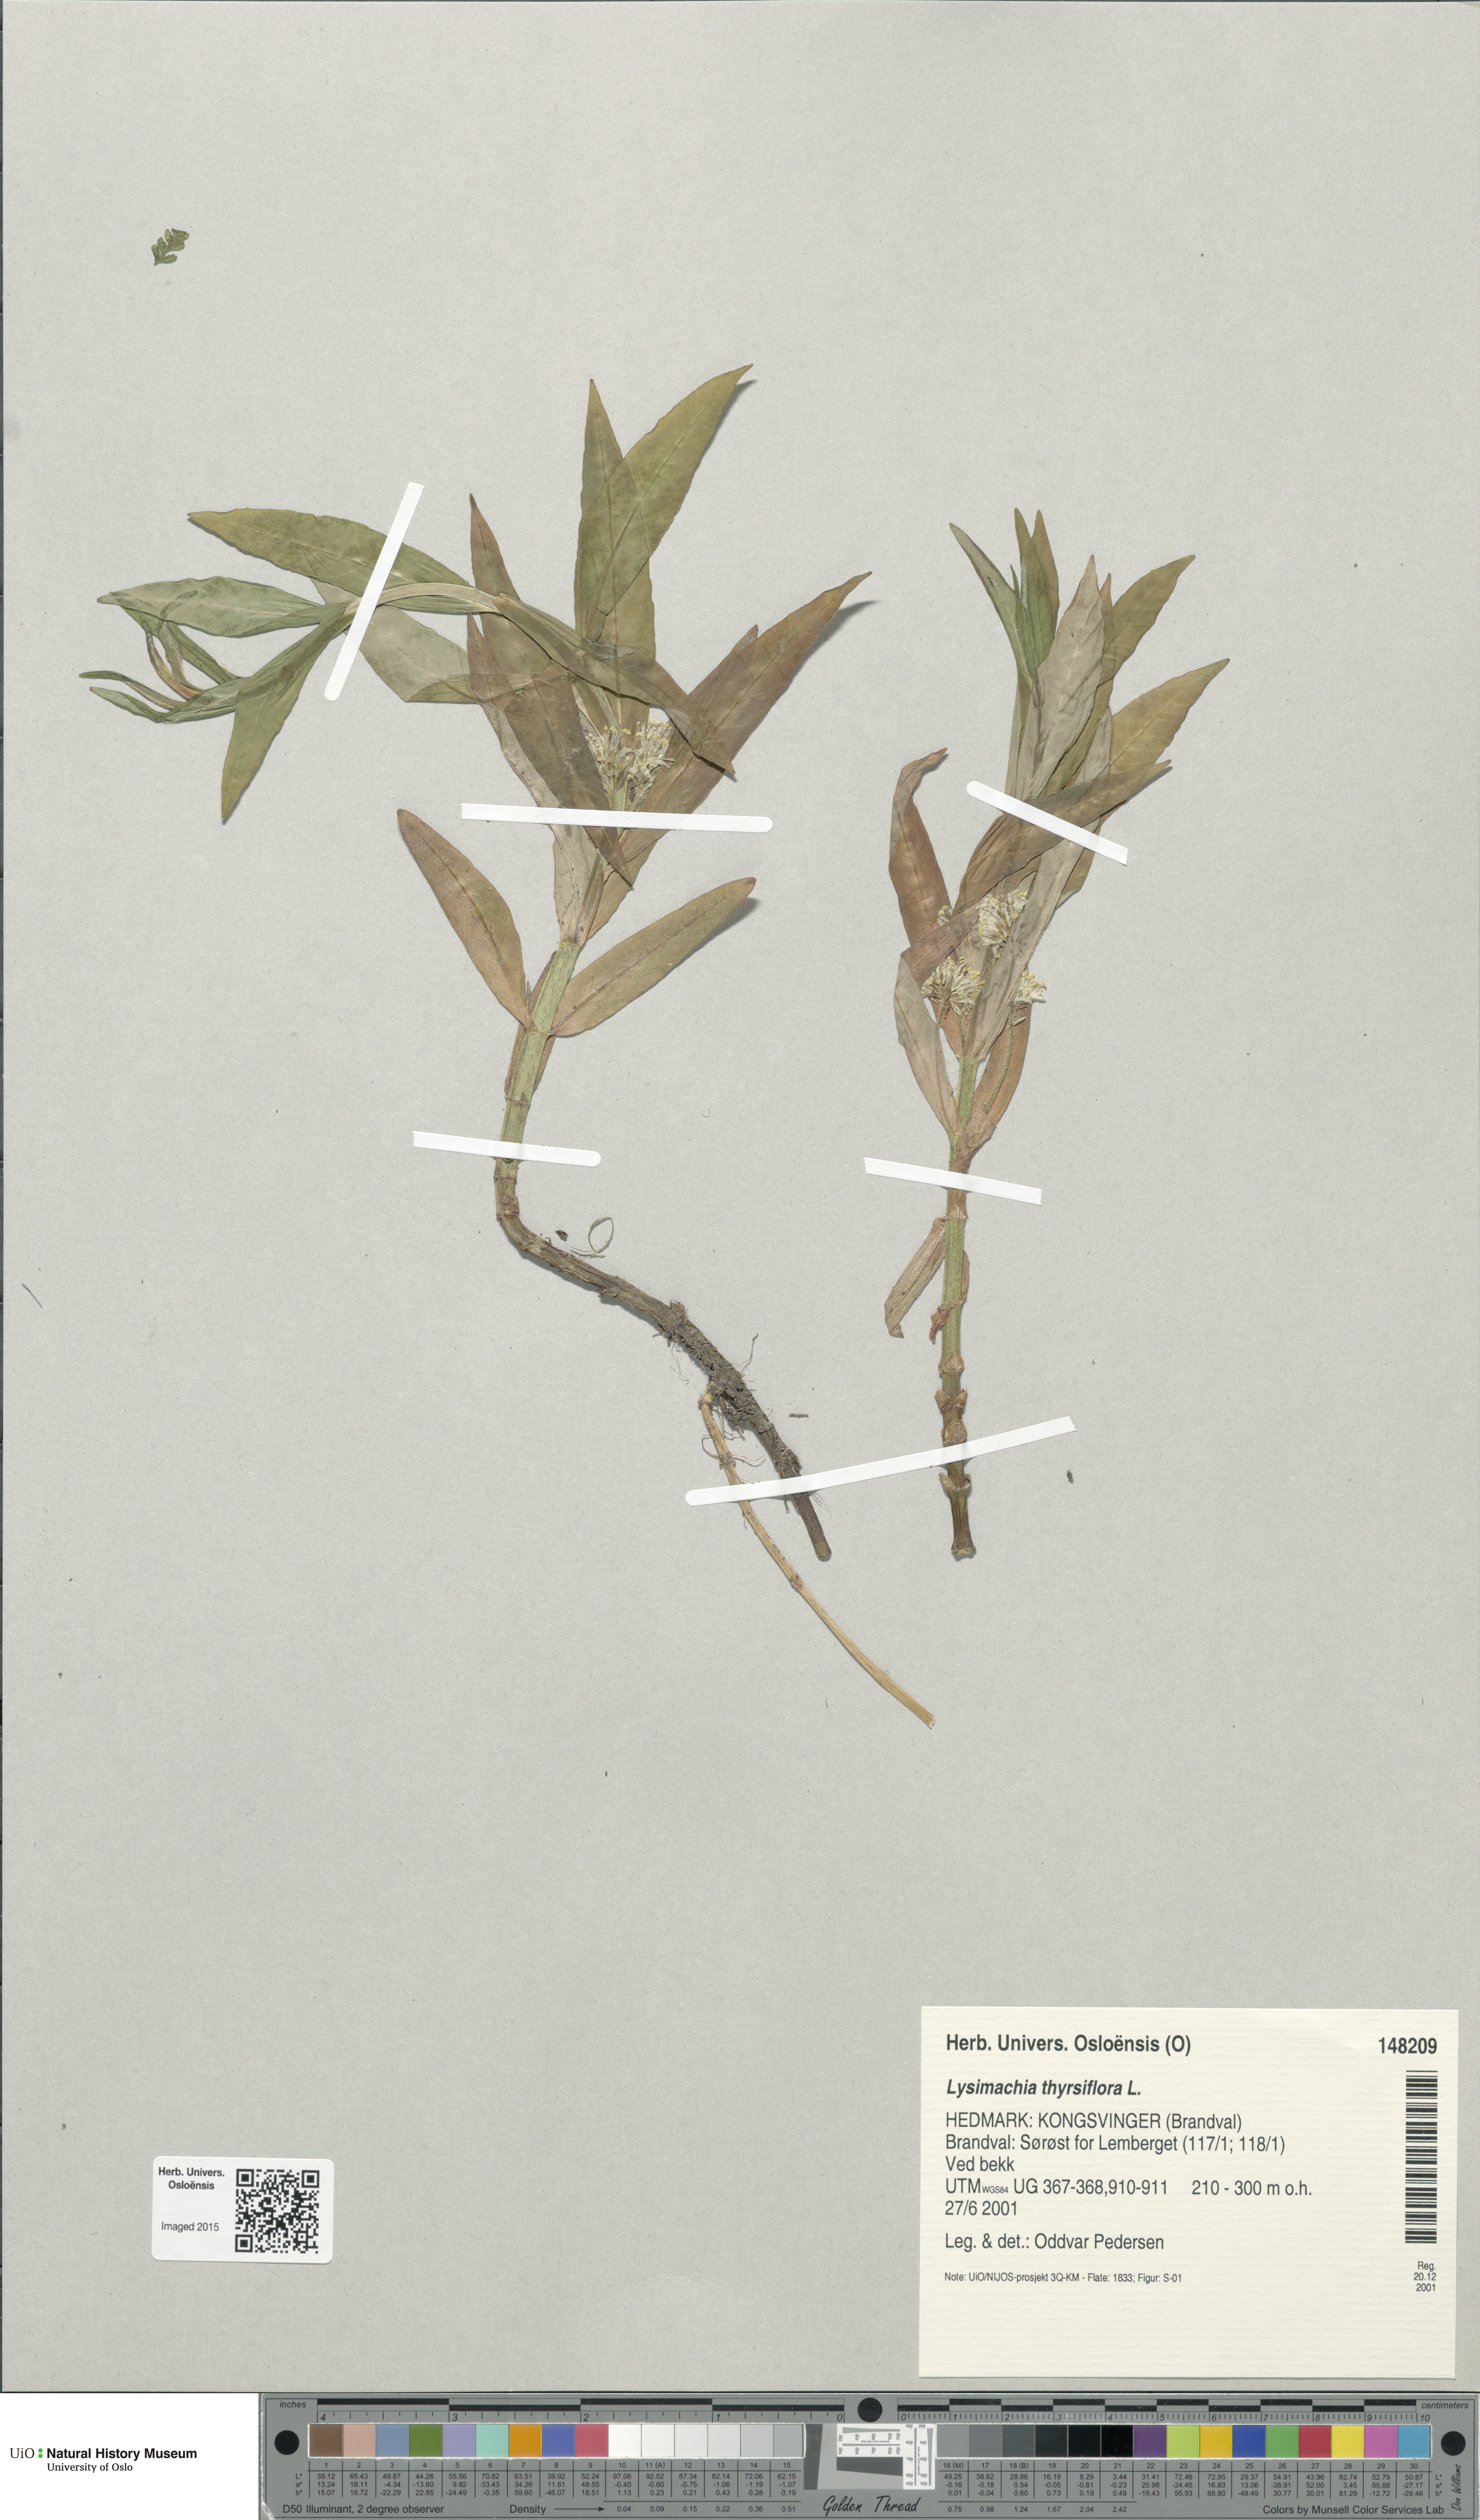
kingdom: Plantae
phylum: Tracheophyta
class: Magnoliopsida
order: Ericales
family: Primulaceae
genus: Lysimachia
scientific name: Lysimachia thyrsiflora
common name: Tufted loosestrife
